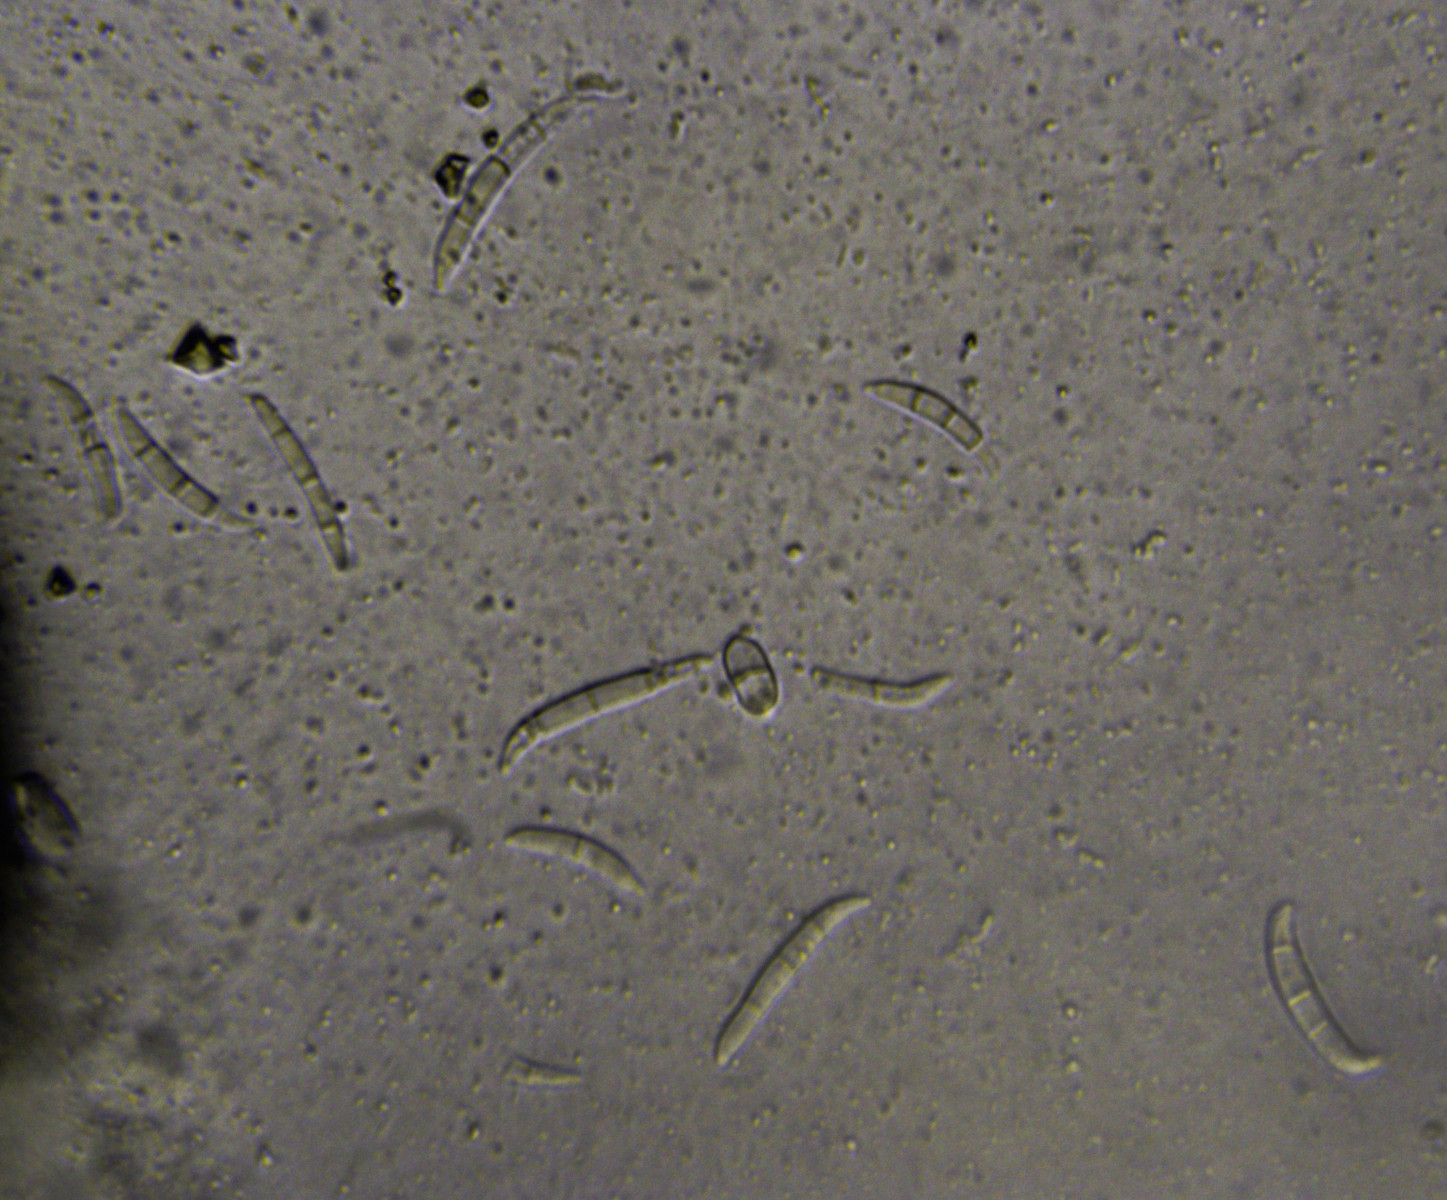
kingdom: Fungi
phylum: Ascomycota
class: Sordariomycetes
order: Hypocreales
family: Nectriaceae
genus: Fusarium
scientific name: Fusarium roseum
